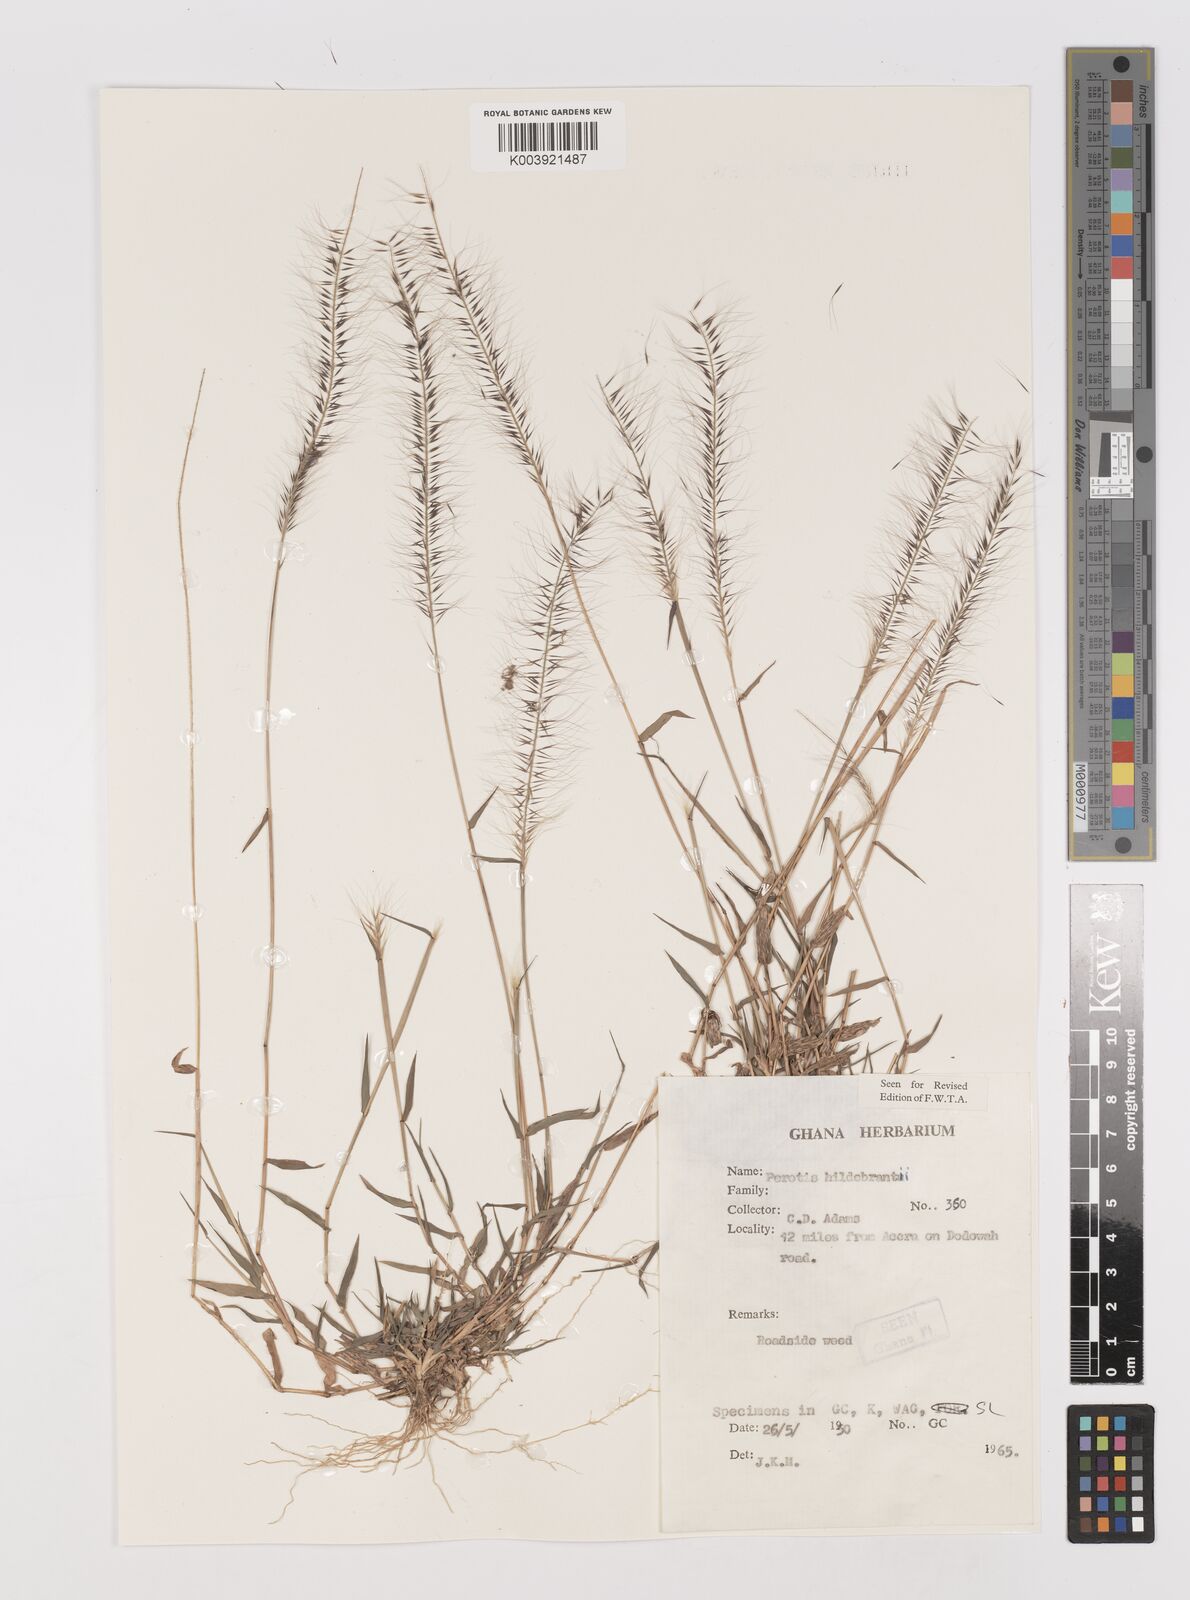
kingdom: Plantae
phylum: Tracheophyta
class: Liliopsida
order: Poales
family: Poaceae
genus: Perotis
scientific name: Perotis hildebrandtii
